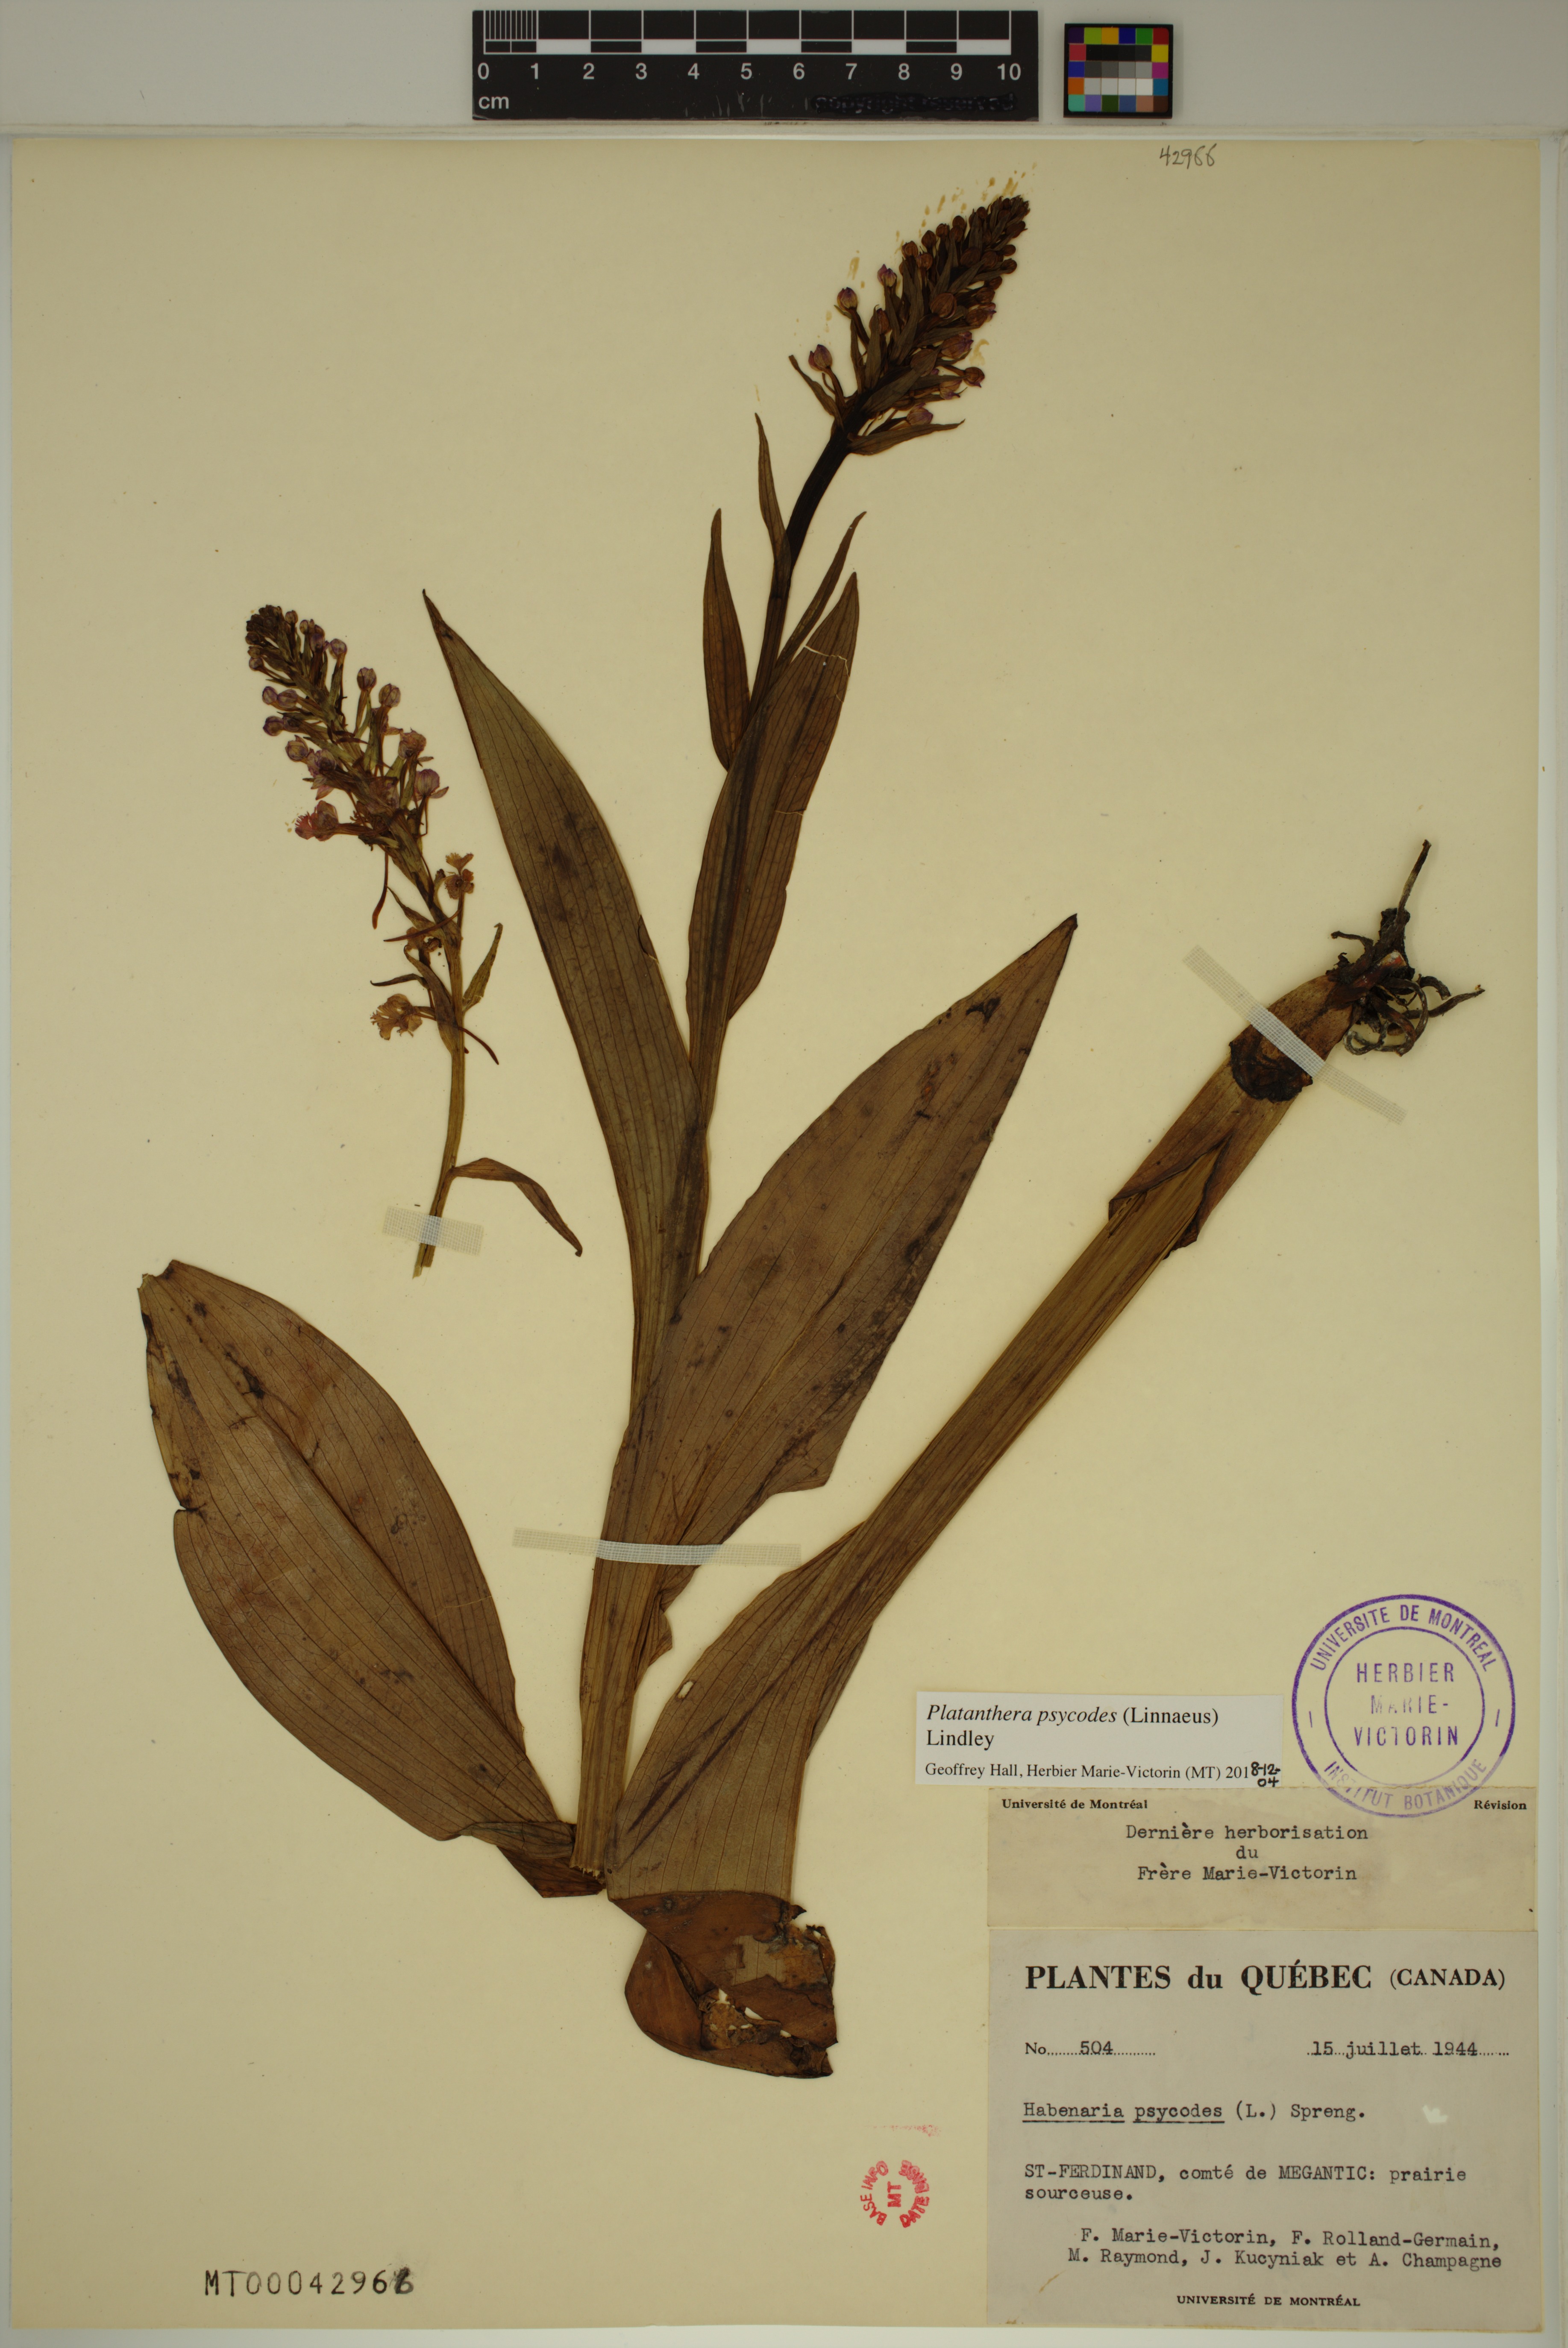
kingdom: Plantae
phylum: Tracheophyta
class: Liliopsida
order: Asparagales
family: Orchidaceae
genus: Platanthera
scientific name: Platanthera psycodes
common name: Lesser purple fringed orchid
